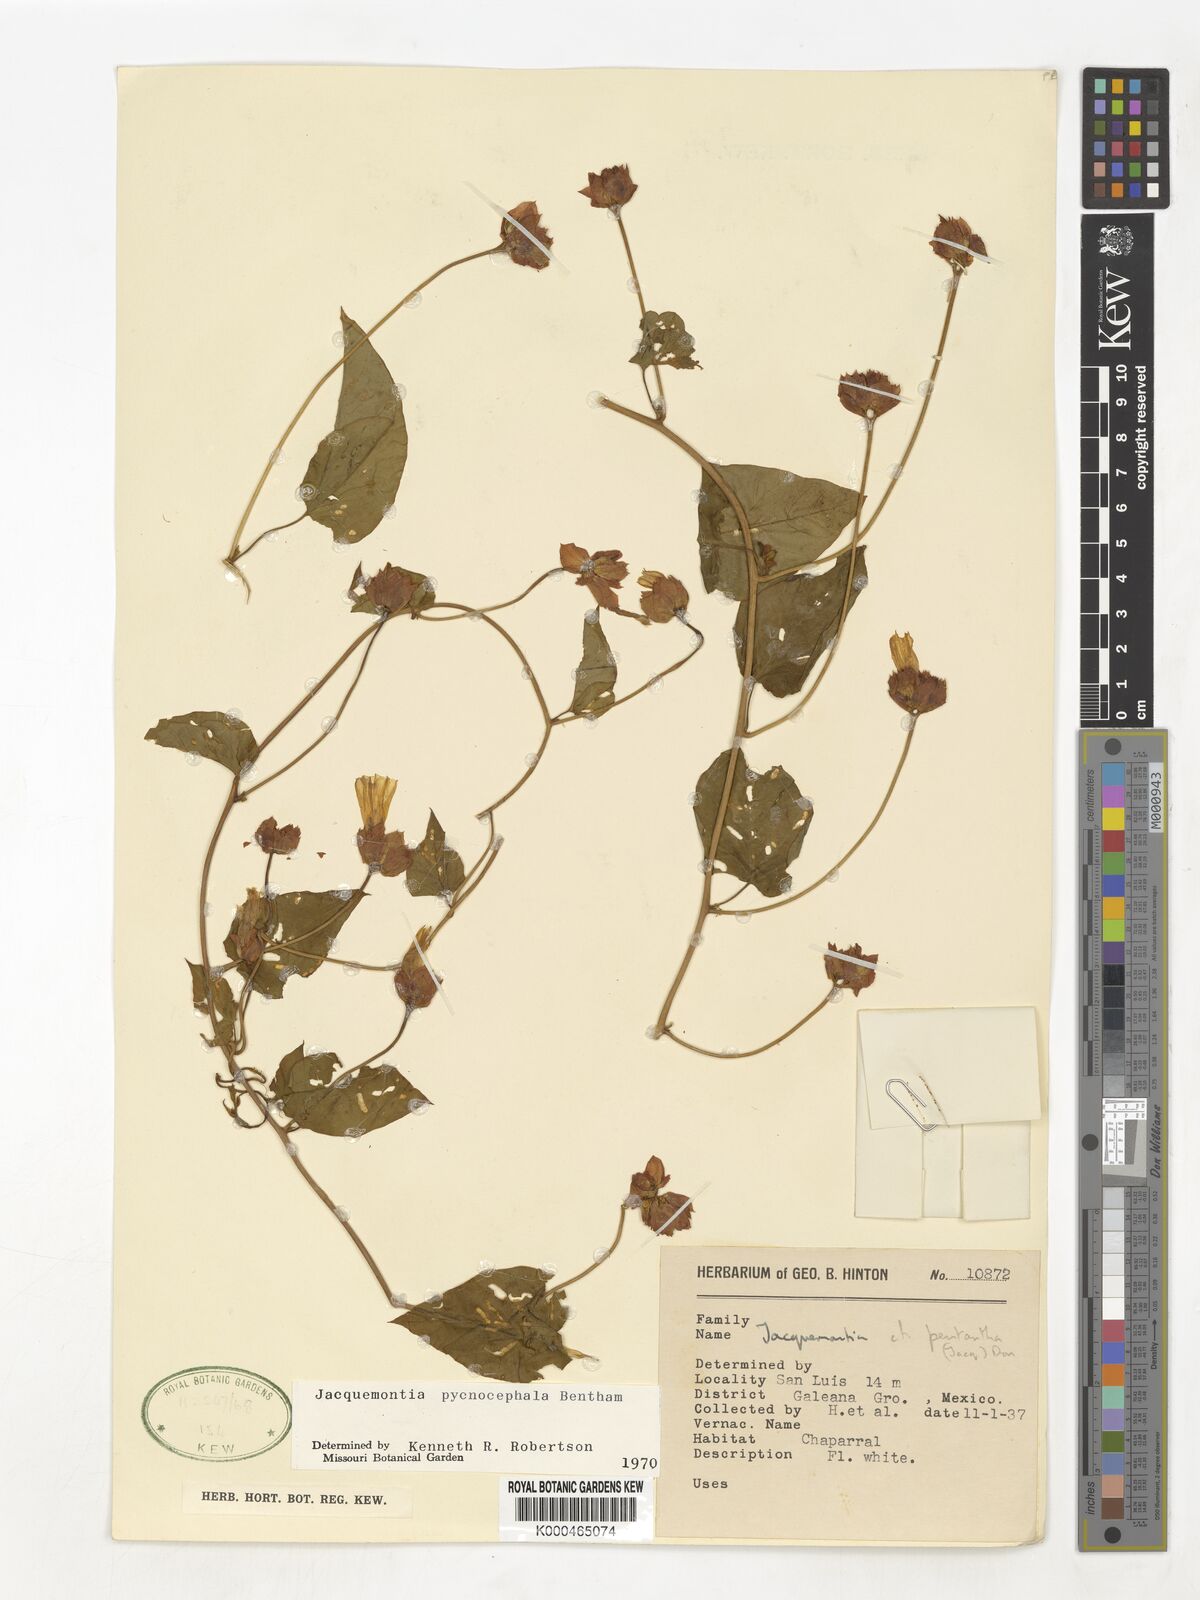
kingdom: Plantae
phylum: Tracheophyta
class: Magnoliopsida
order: Solanales
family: Convolvulaceae
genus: Jacquemontia
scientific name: Jacquemontia pycnocephala
